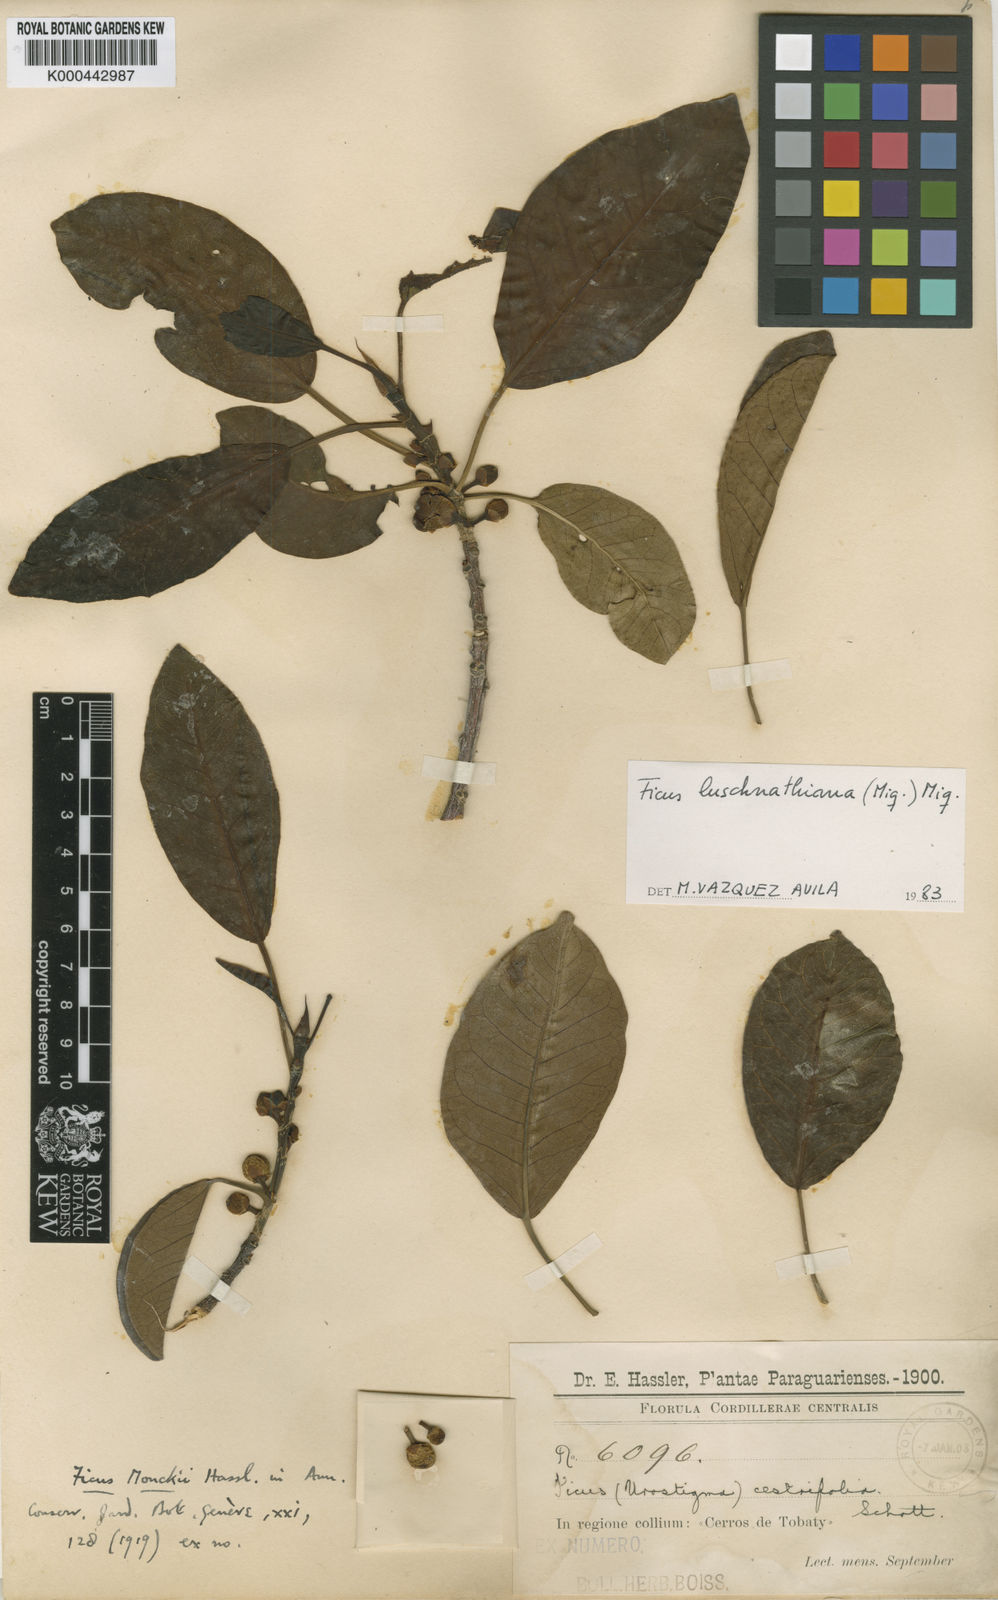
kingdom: Plantae
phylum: Tracheophyta
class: Magnoliopsida
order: Rosales
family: Moraceae
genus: Ficus
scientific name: Ficus luschnathiana
